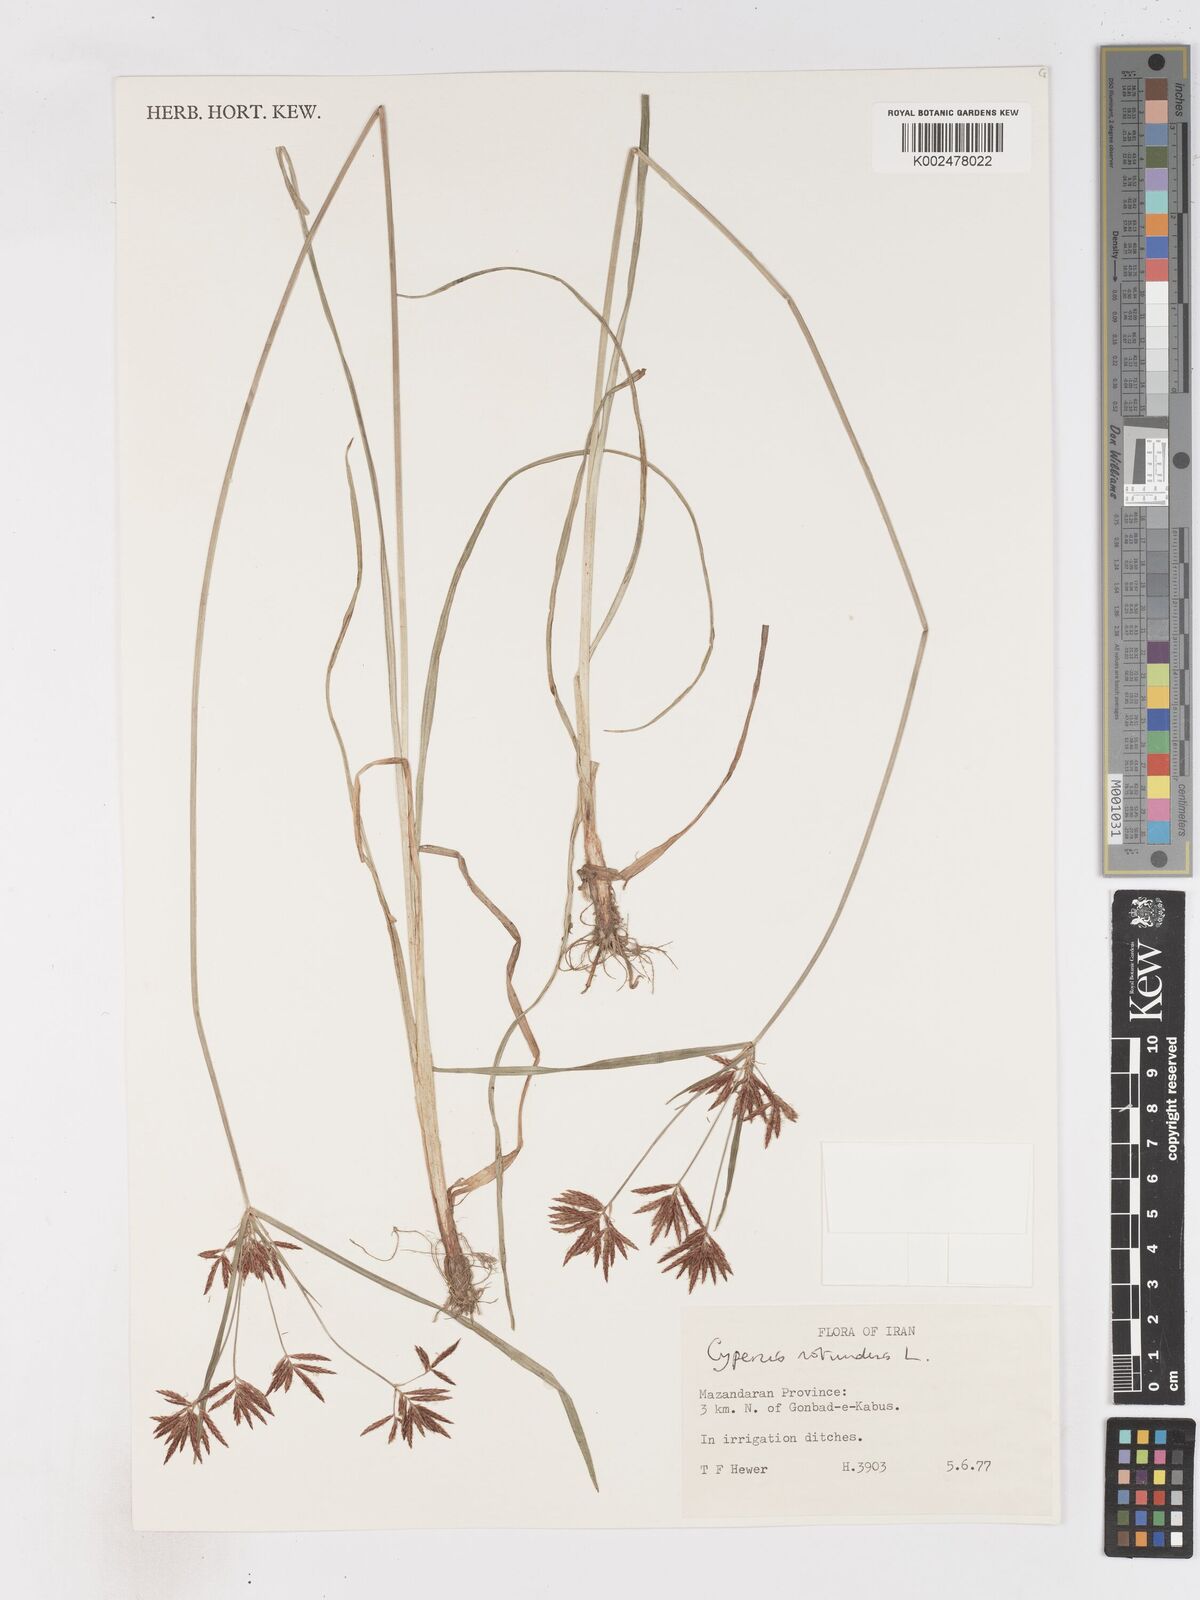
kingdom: Plantae
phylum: Tracheophyta
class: Liliopsida
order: Poales
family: Cyperaceae
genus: Cyperus
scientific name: Cyperus rotundus
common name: Nutgrass
